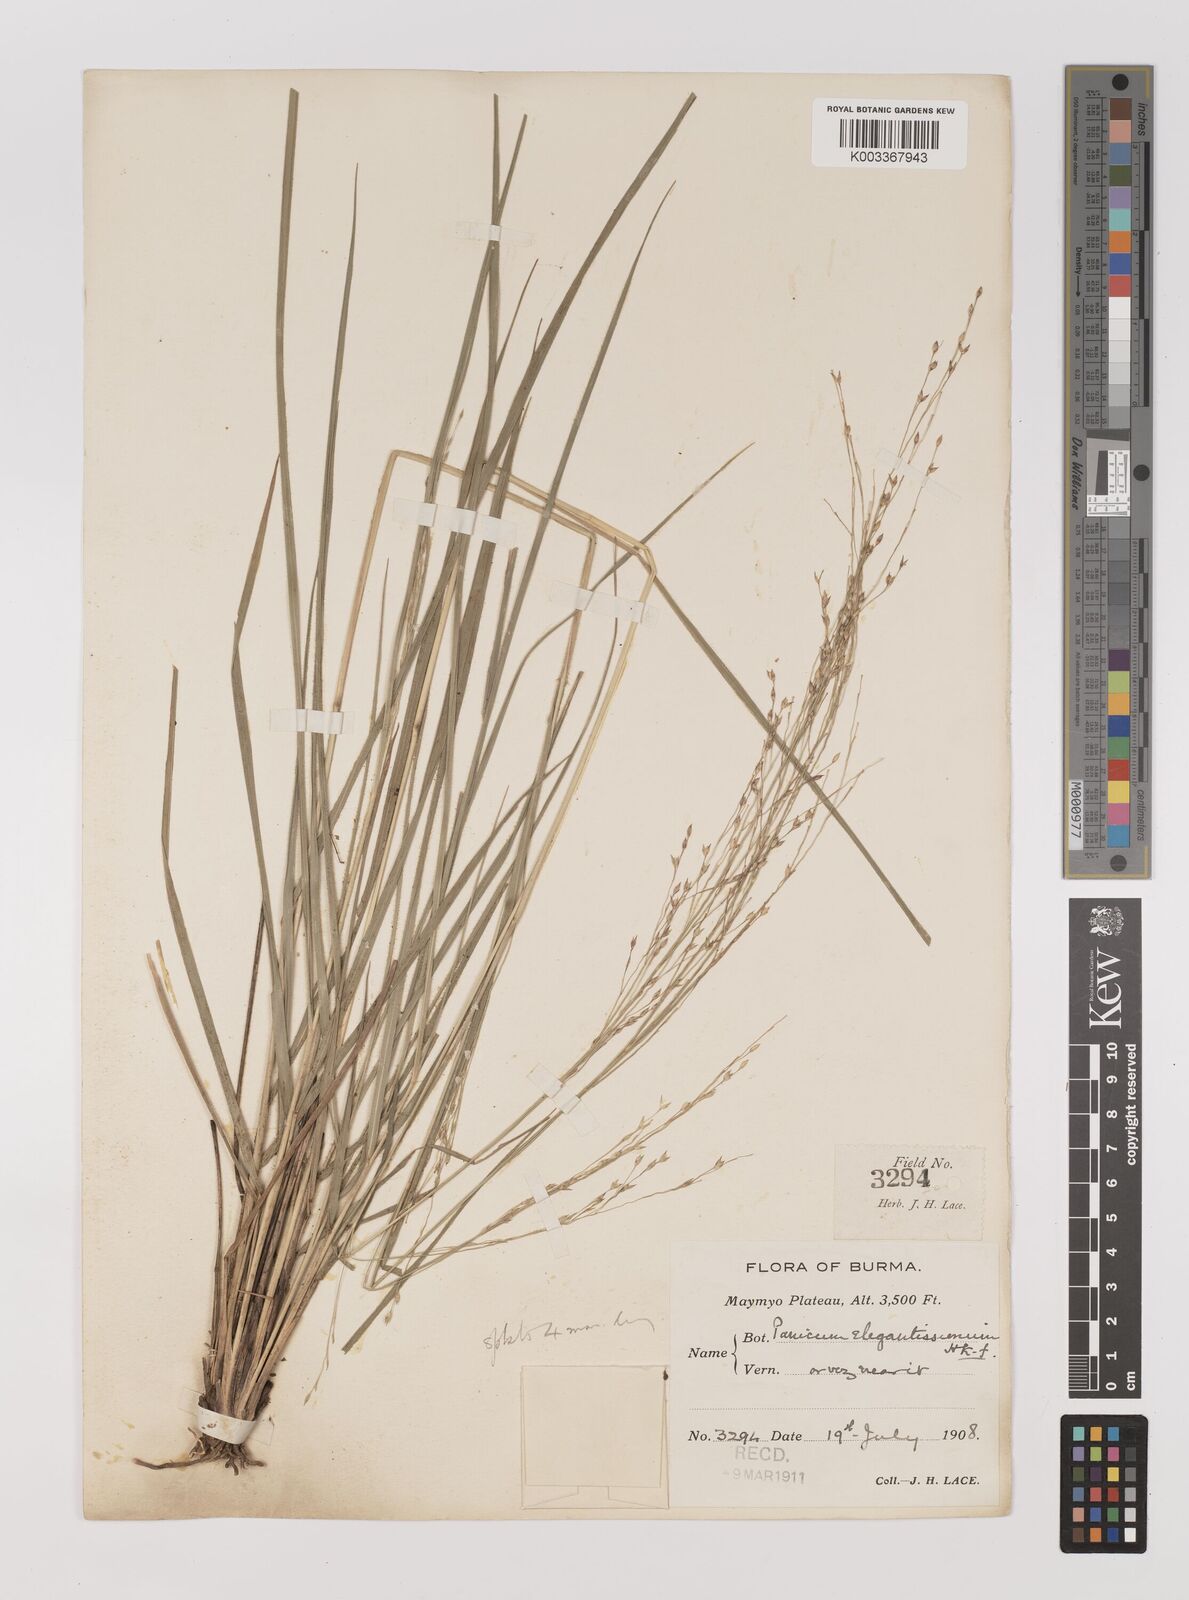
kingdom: Plantae
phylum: Tracheophyta
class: Liliopsida
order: Poales
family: Poaceae
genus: Panicum
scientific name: Panicum elegantissimum
